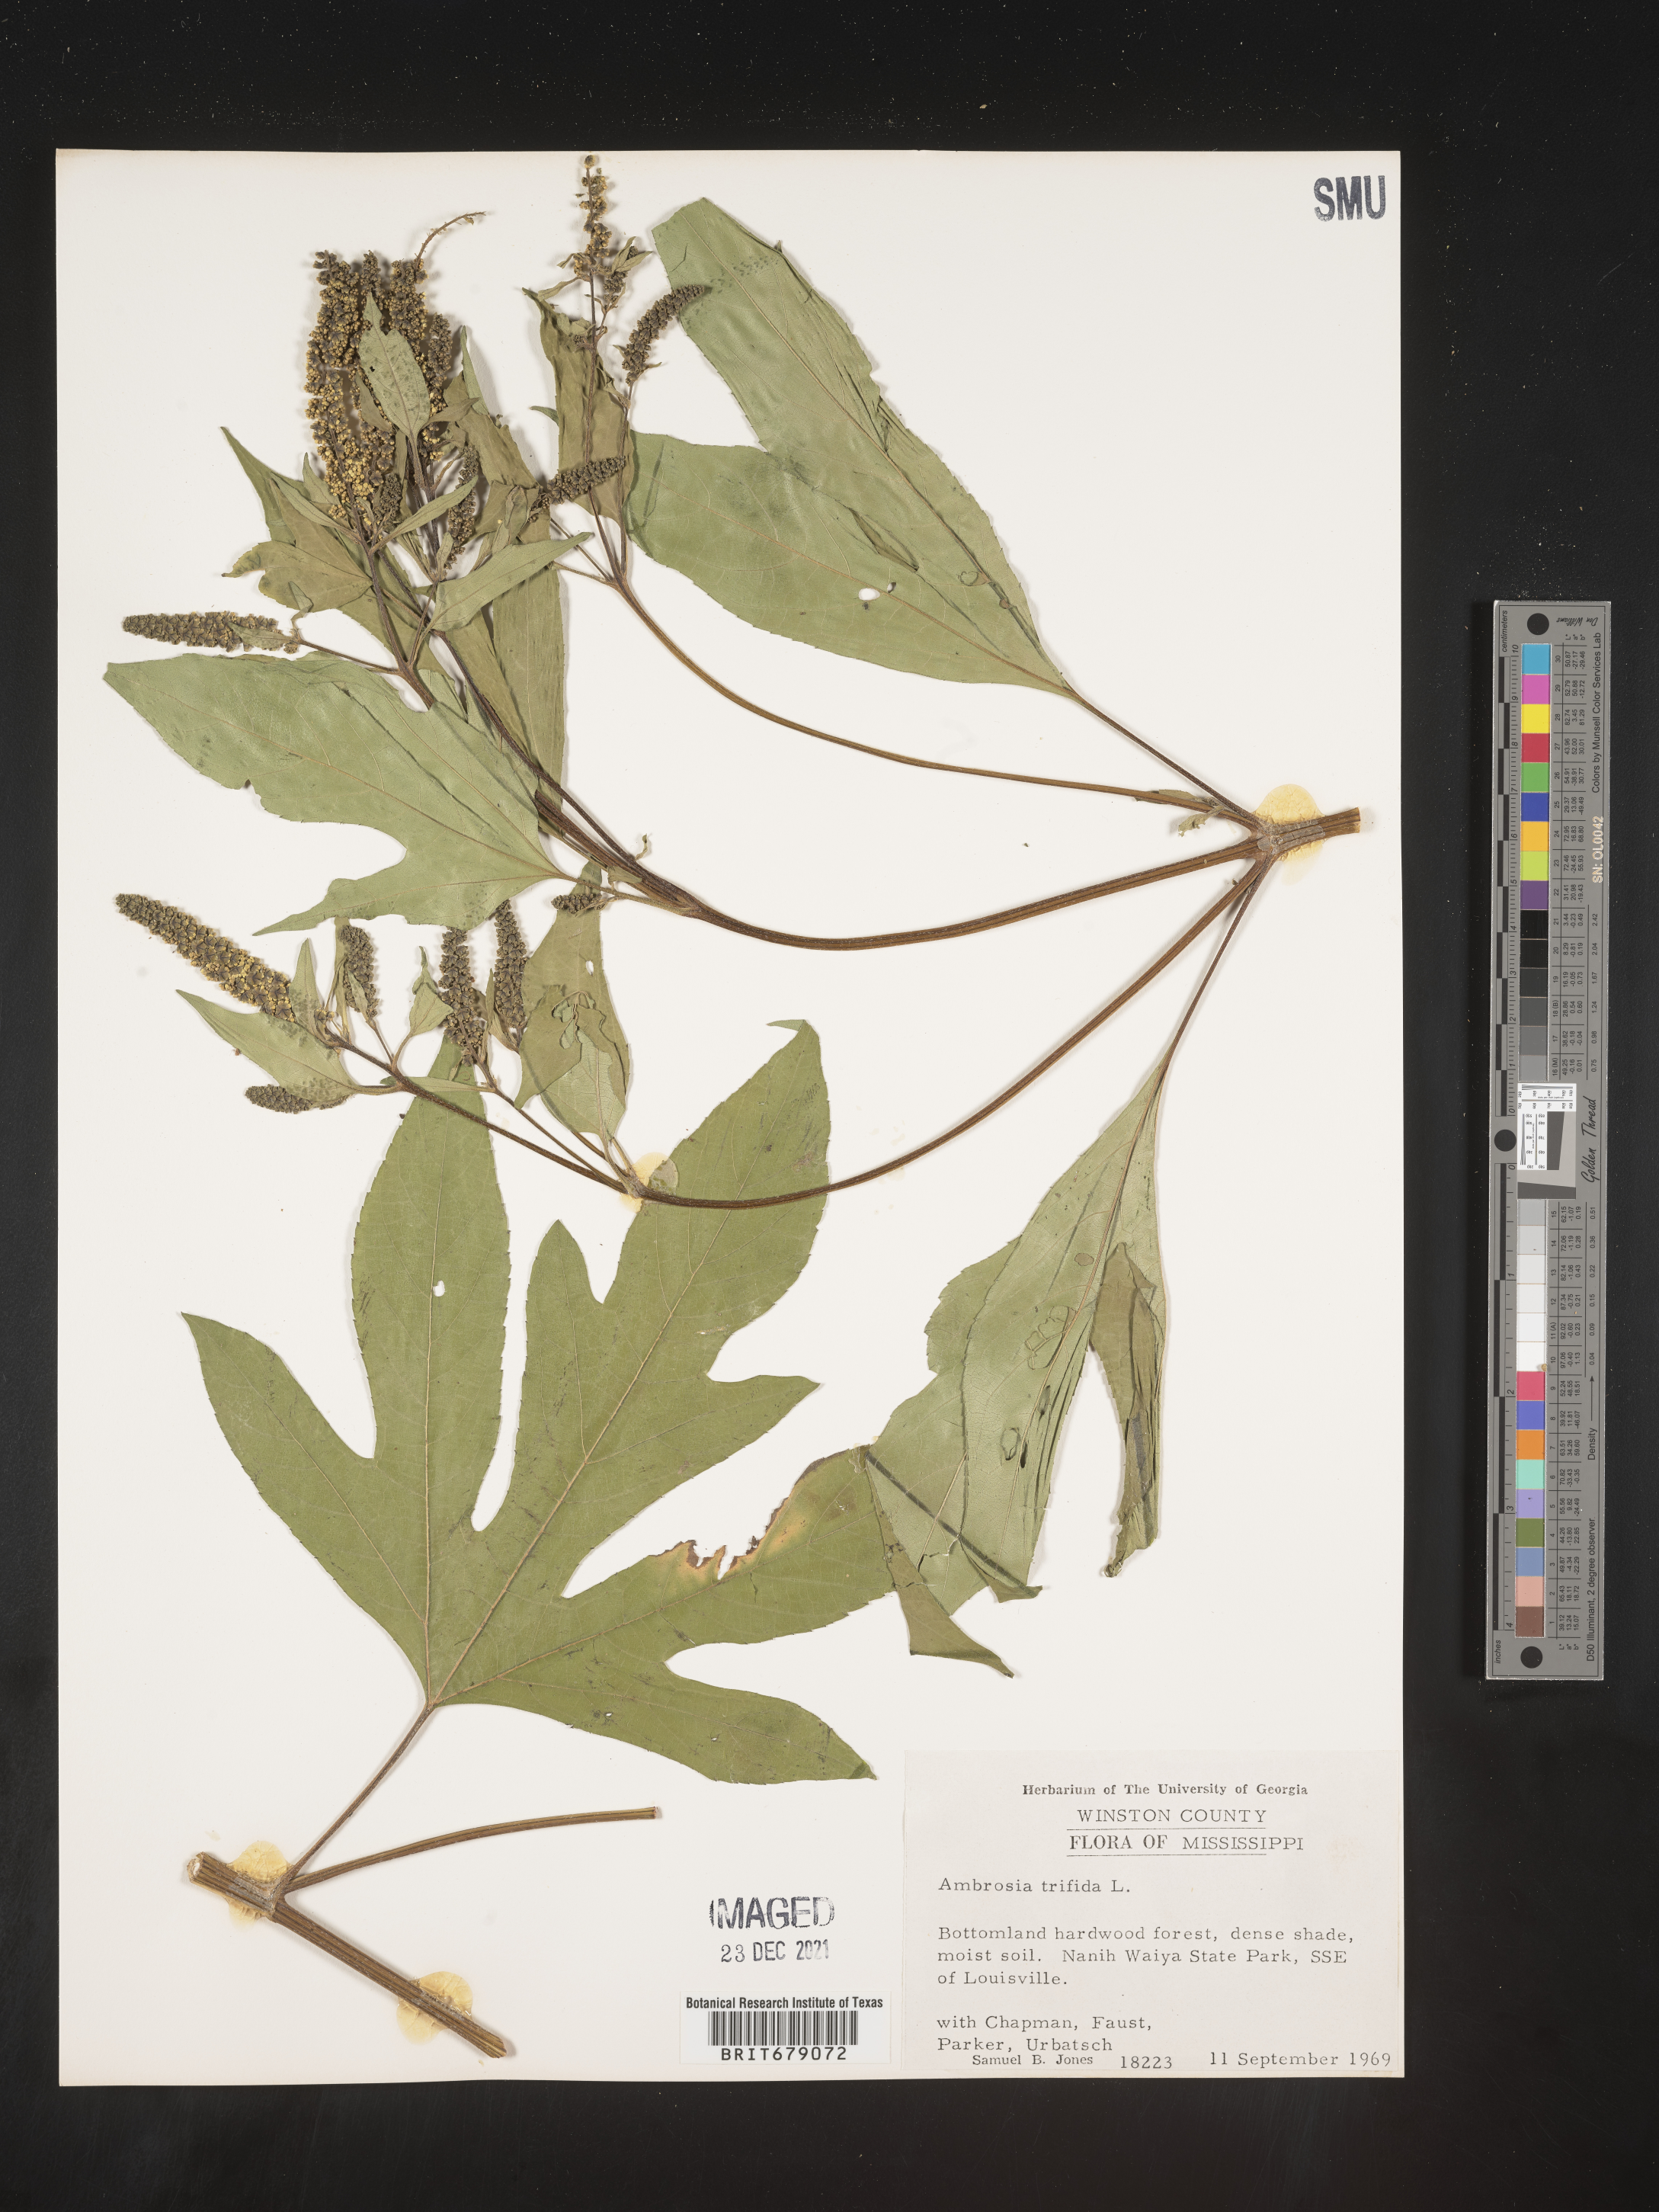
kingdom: Plantae
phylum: Tracheophyta
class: Magnoliopsida
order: Asterales
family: Asteraceae
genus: Ambrosia
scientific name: Ambrosia trifida
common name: Giant ragweed
